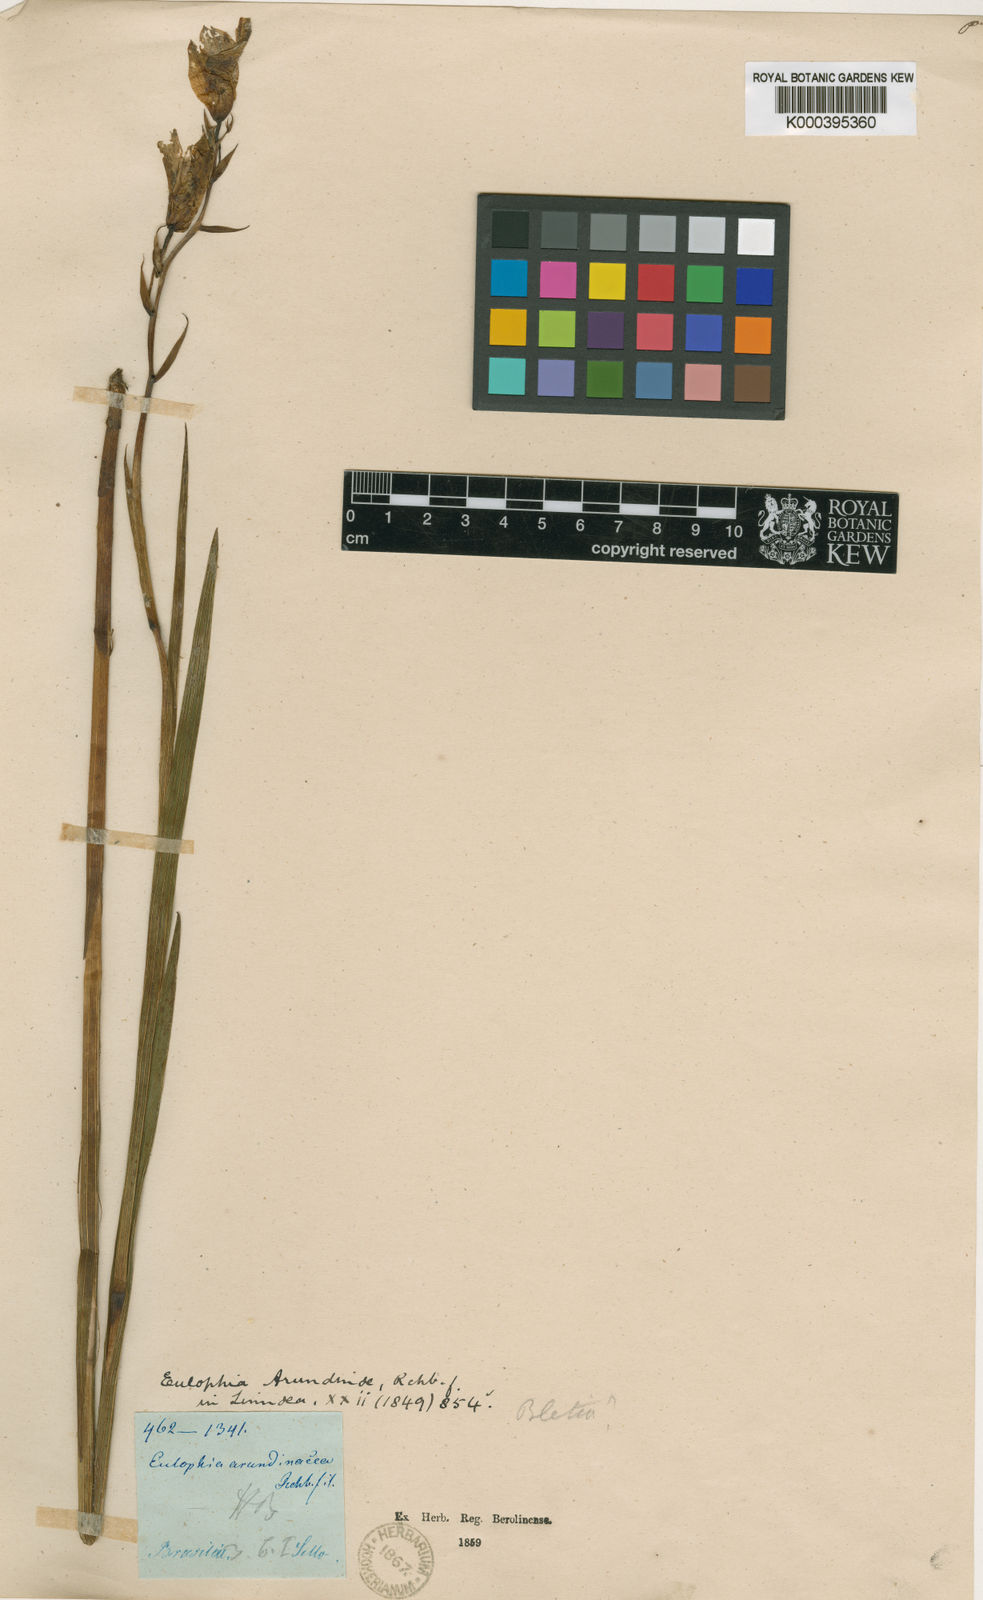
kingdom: Plantae
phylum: Tracheophyta
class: Liliopsida
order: Asparagales
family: Orchidaceae
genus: Cyanaeorchis
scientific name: Cyanaeorchis arundinae
